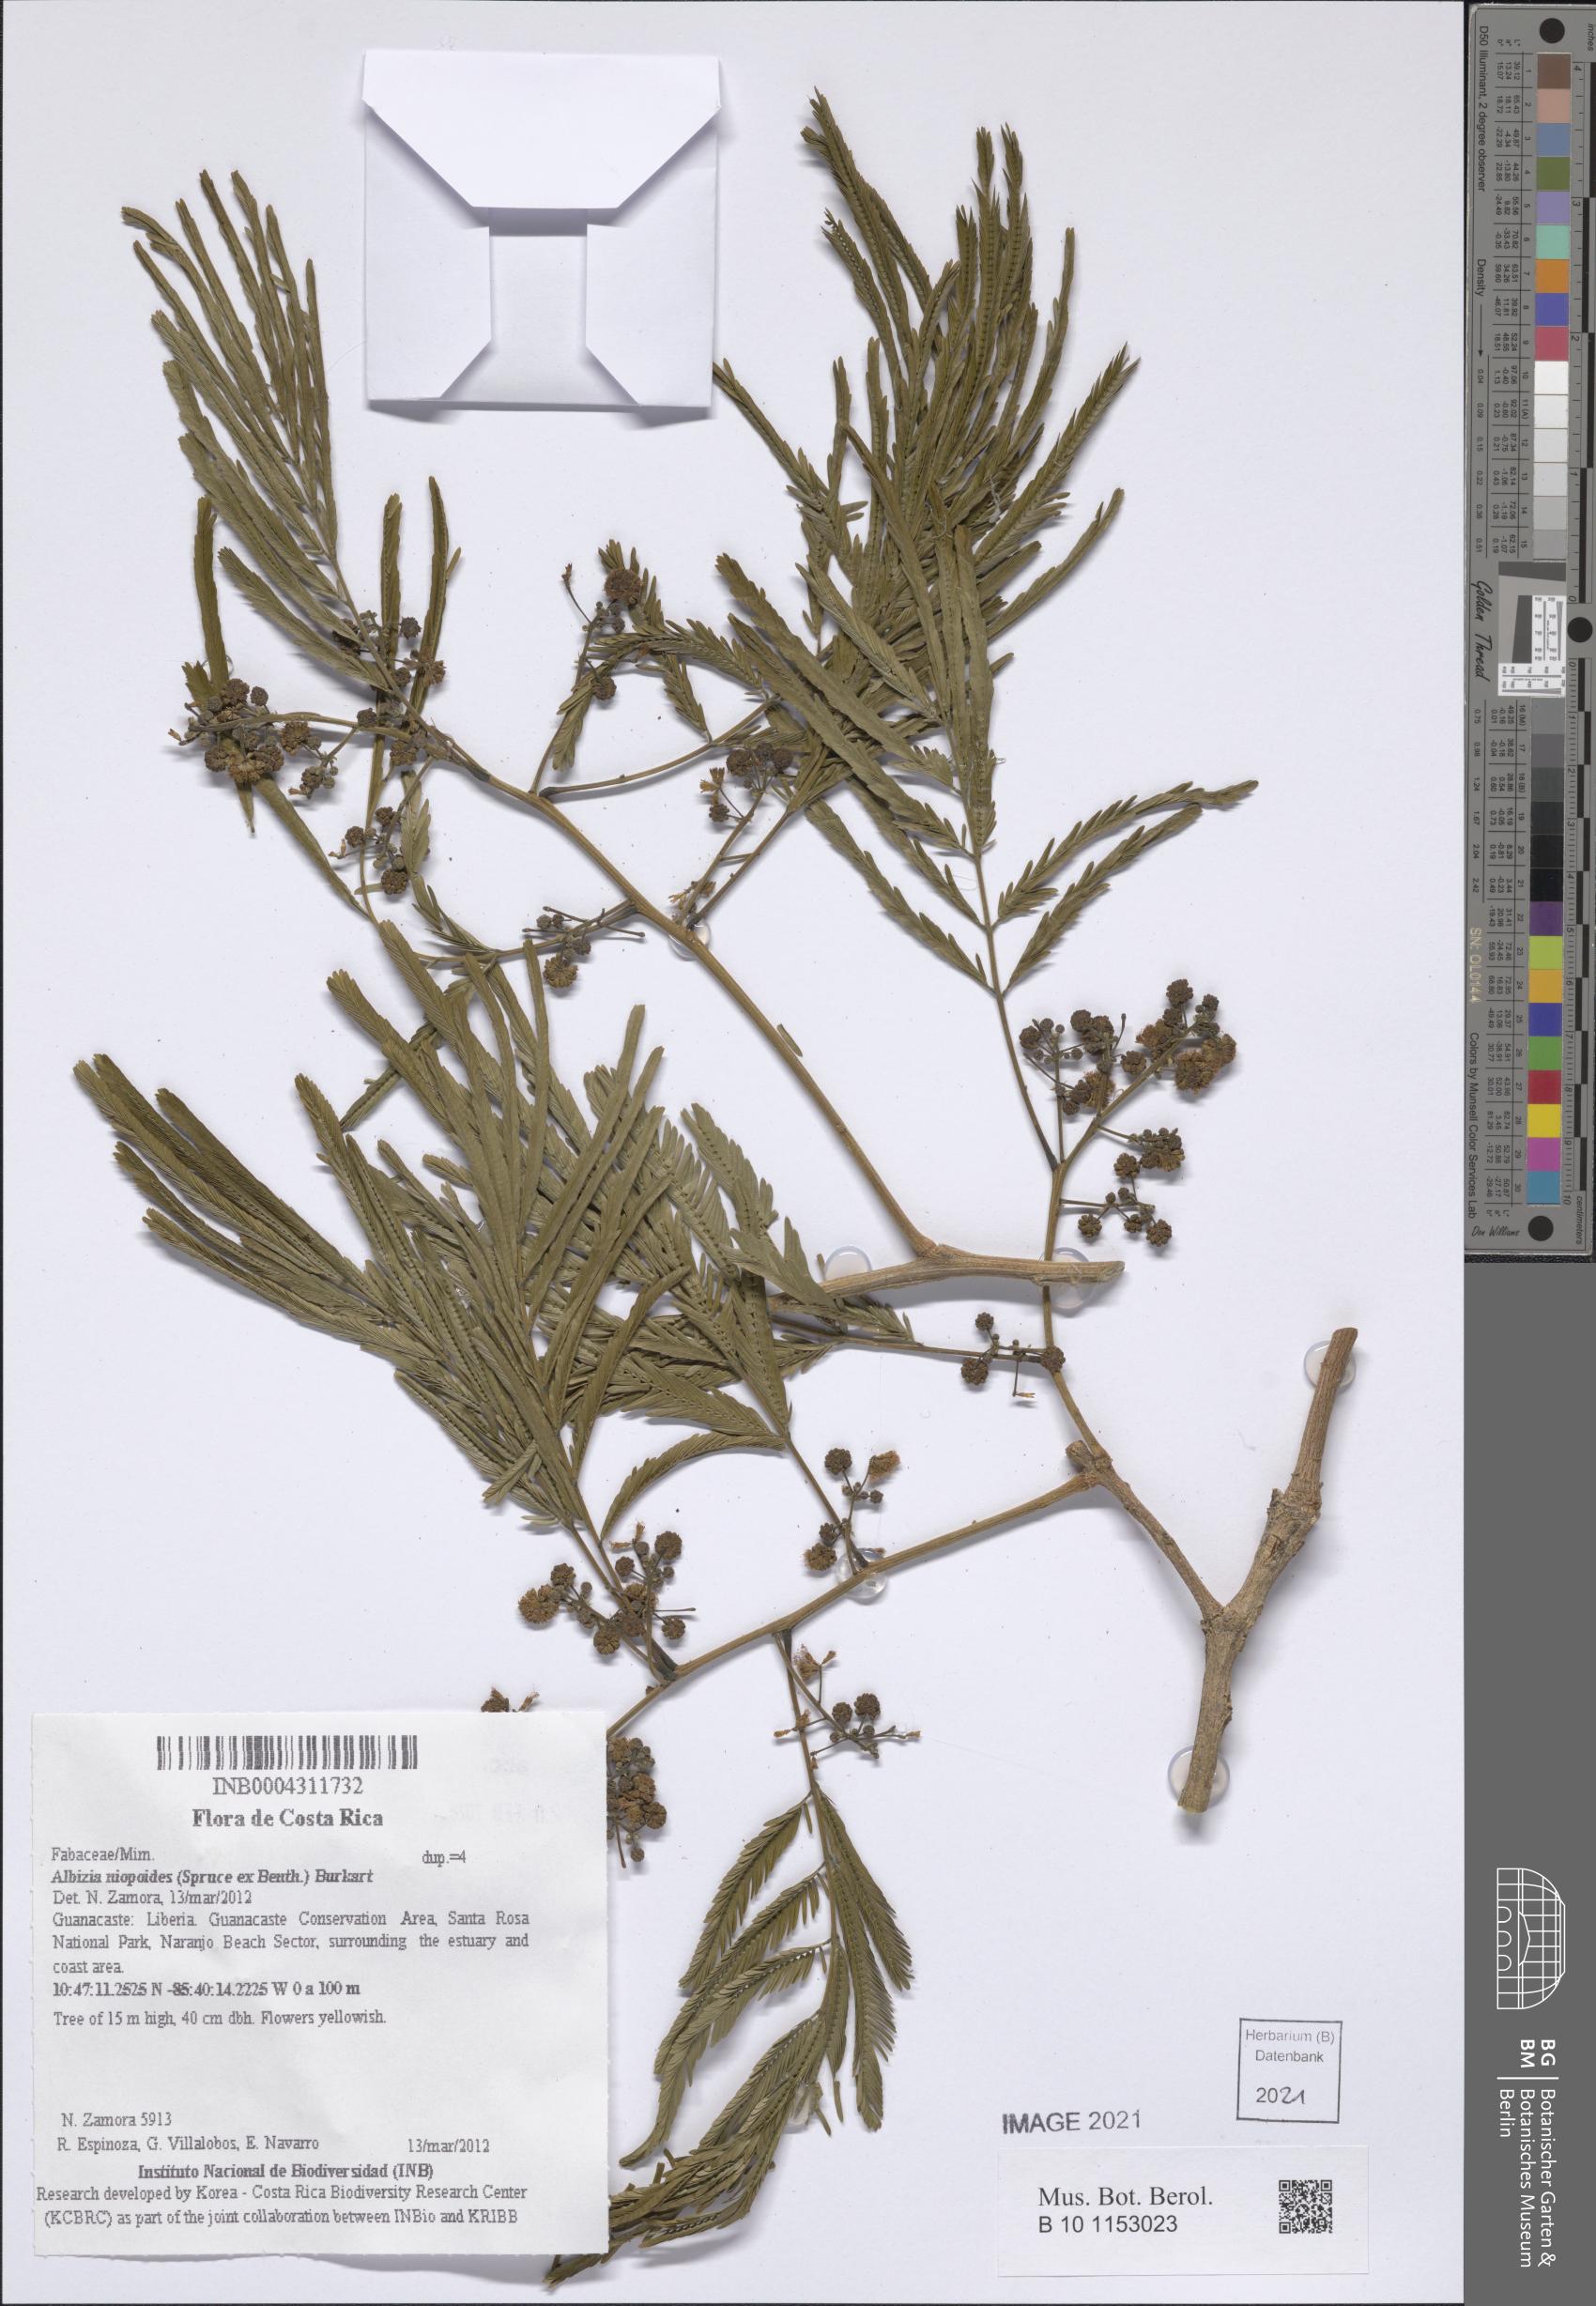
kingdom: Plantae
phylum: Tracheophyta
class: Magnoliopsida
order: Fabales
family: Fabaceae
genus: Albizia
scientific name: Albizia niopoides
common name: Silk tree
